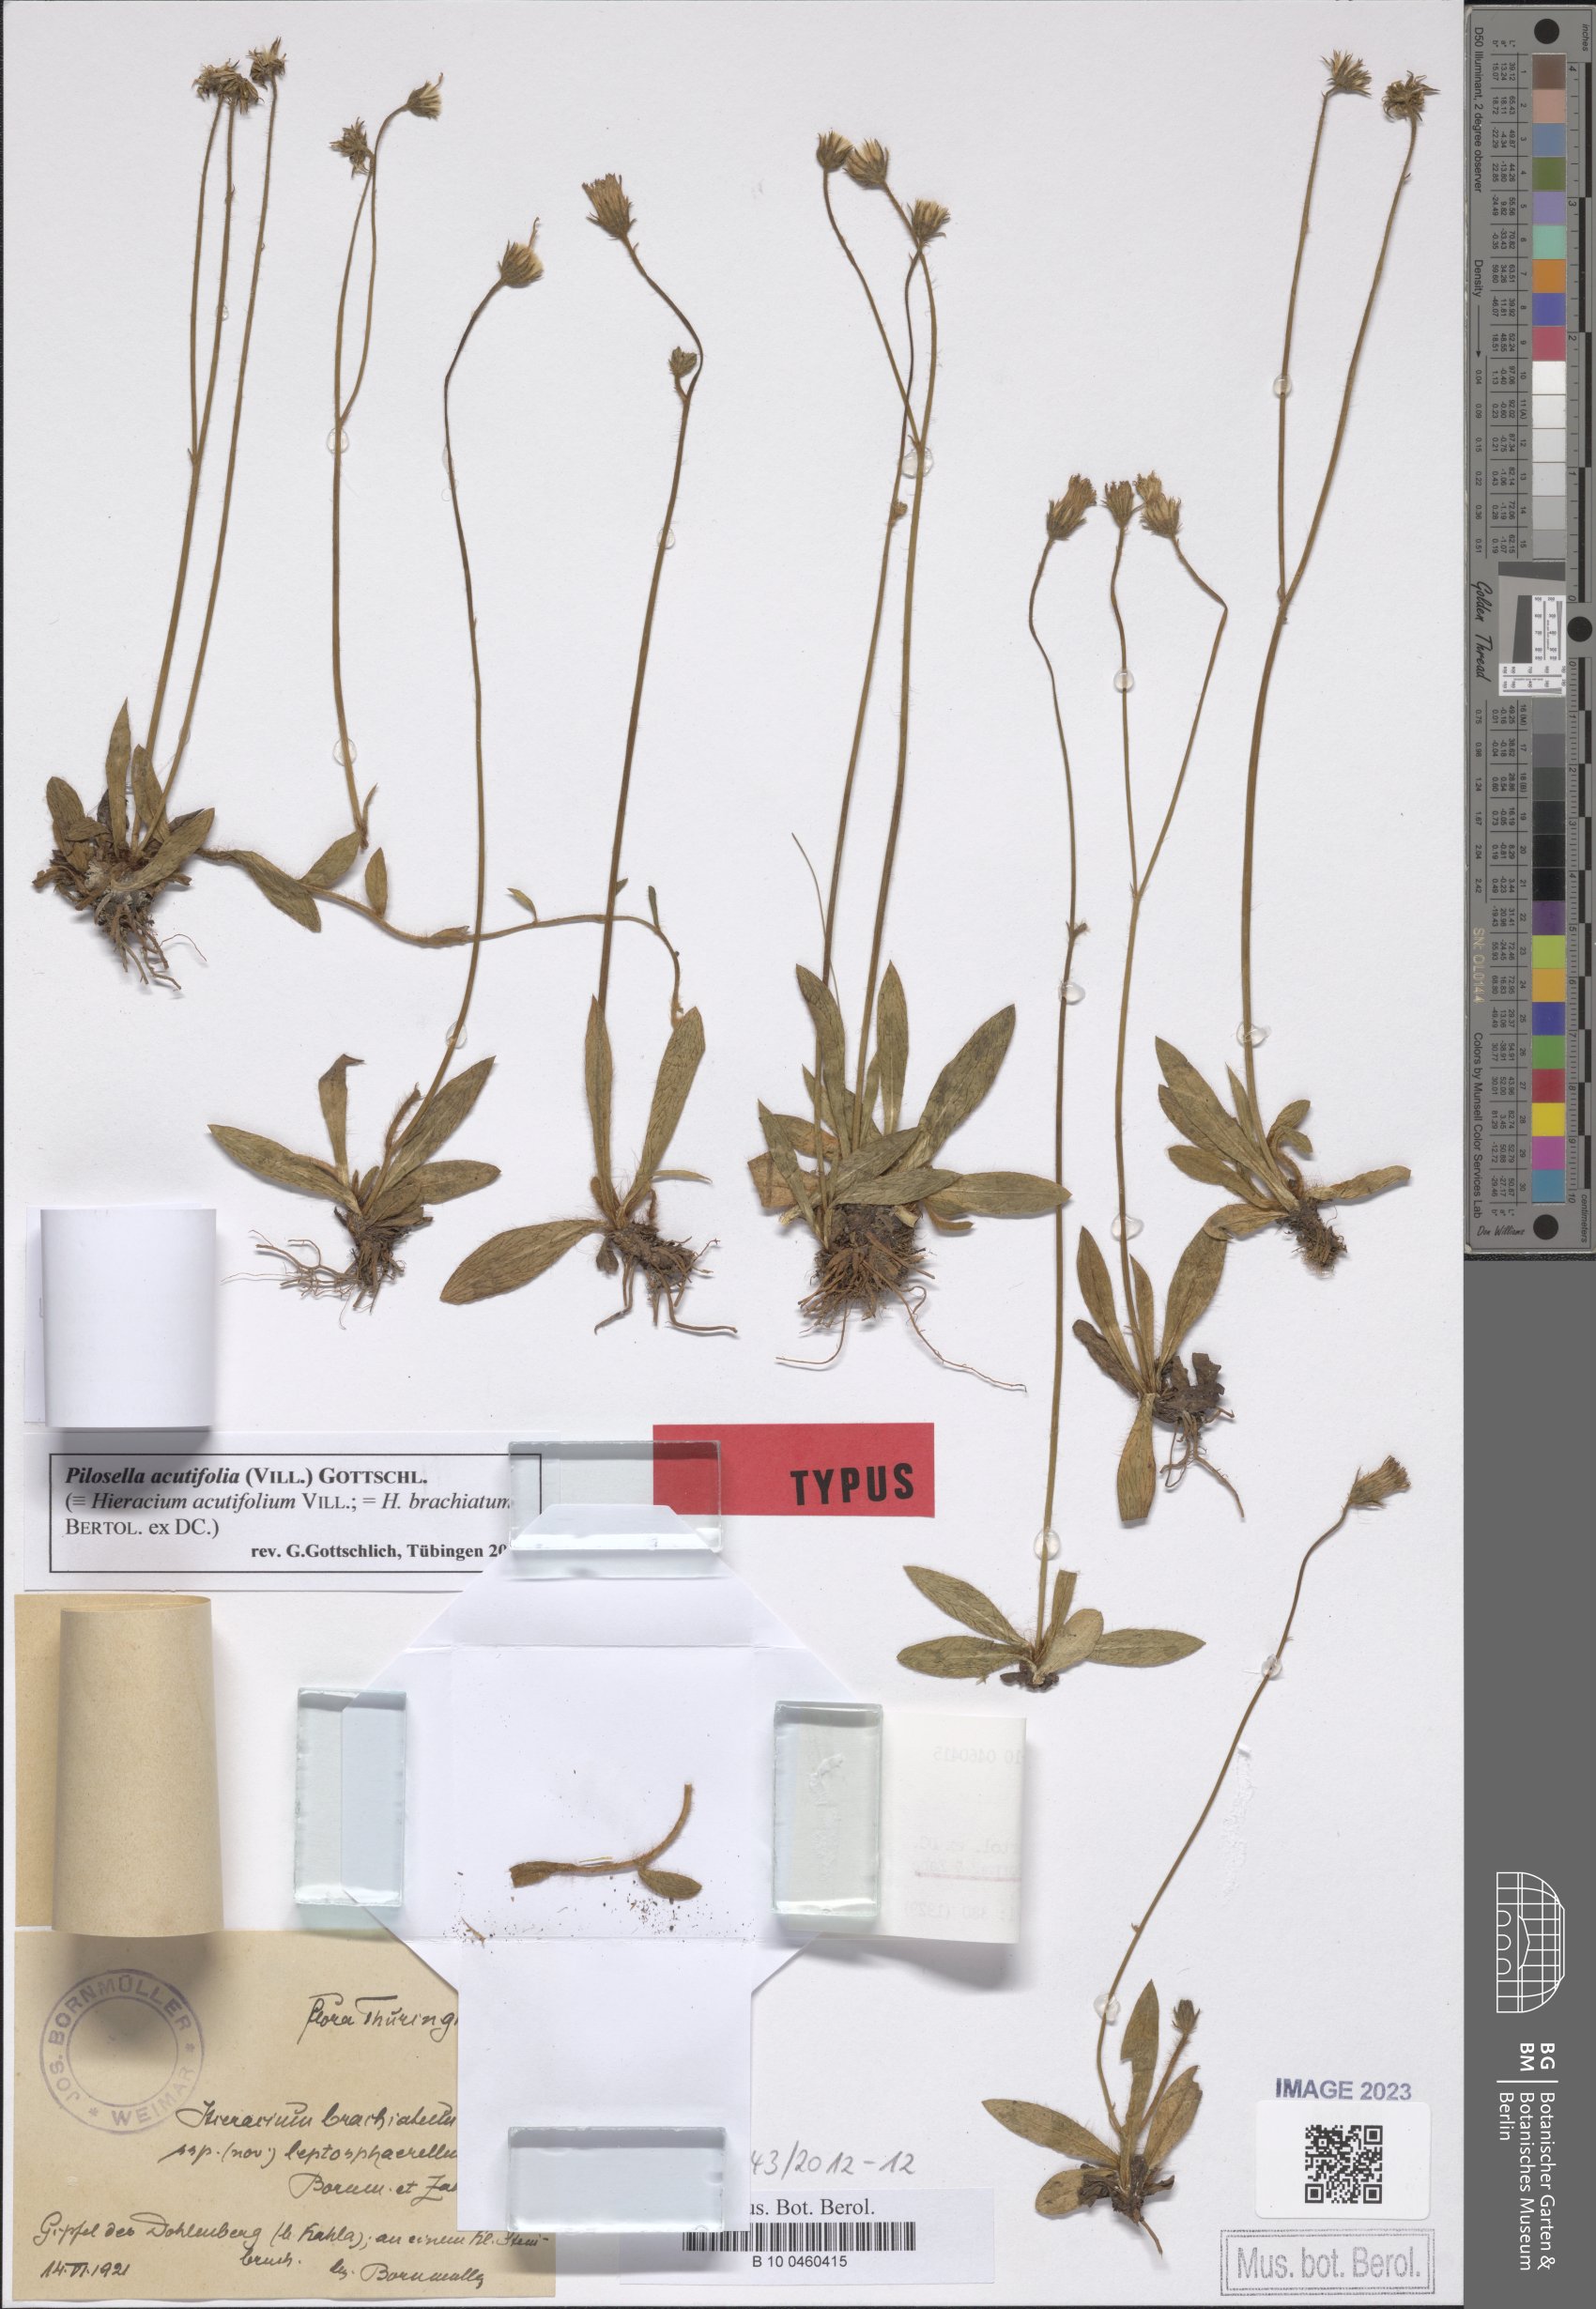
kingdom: Plantae
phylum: Tracheophyta
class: Magnoliopsida
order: Asterales
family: Asteraceae
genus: Pilosella
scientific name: Pilosella acutifolia
